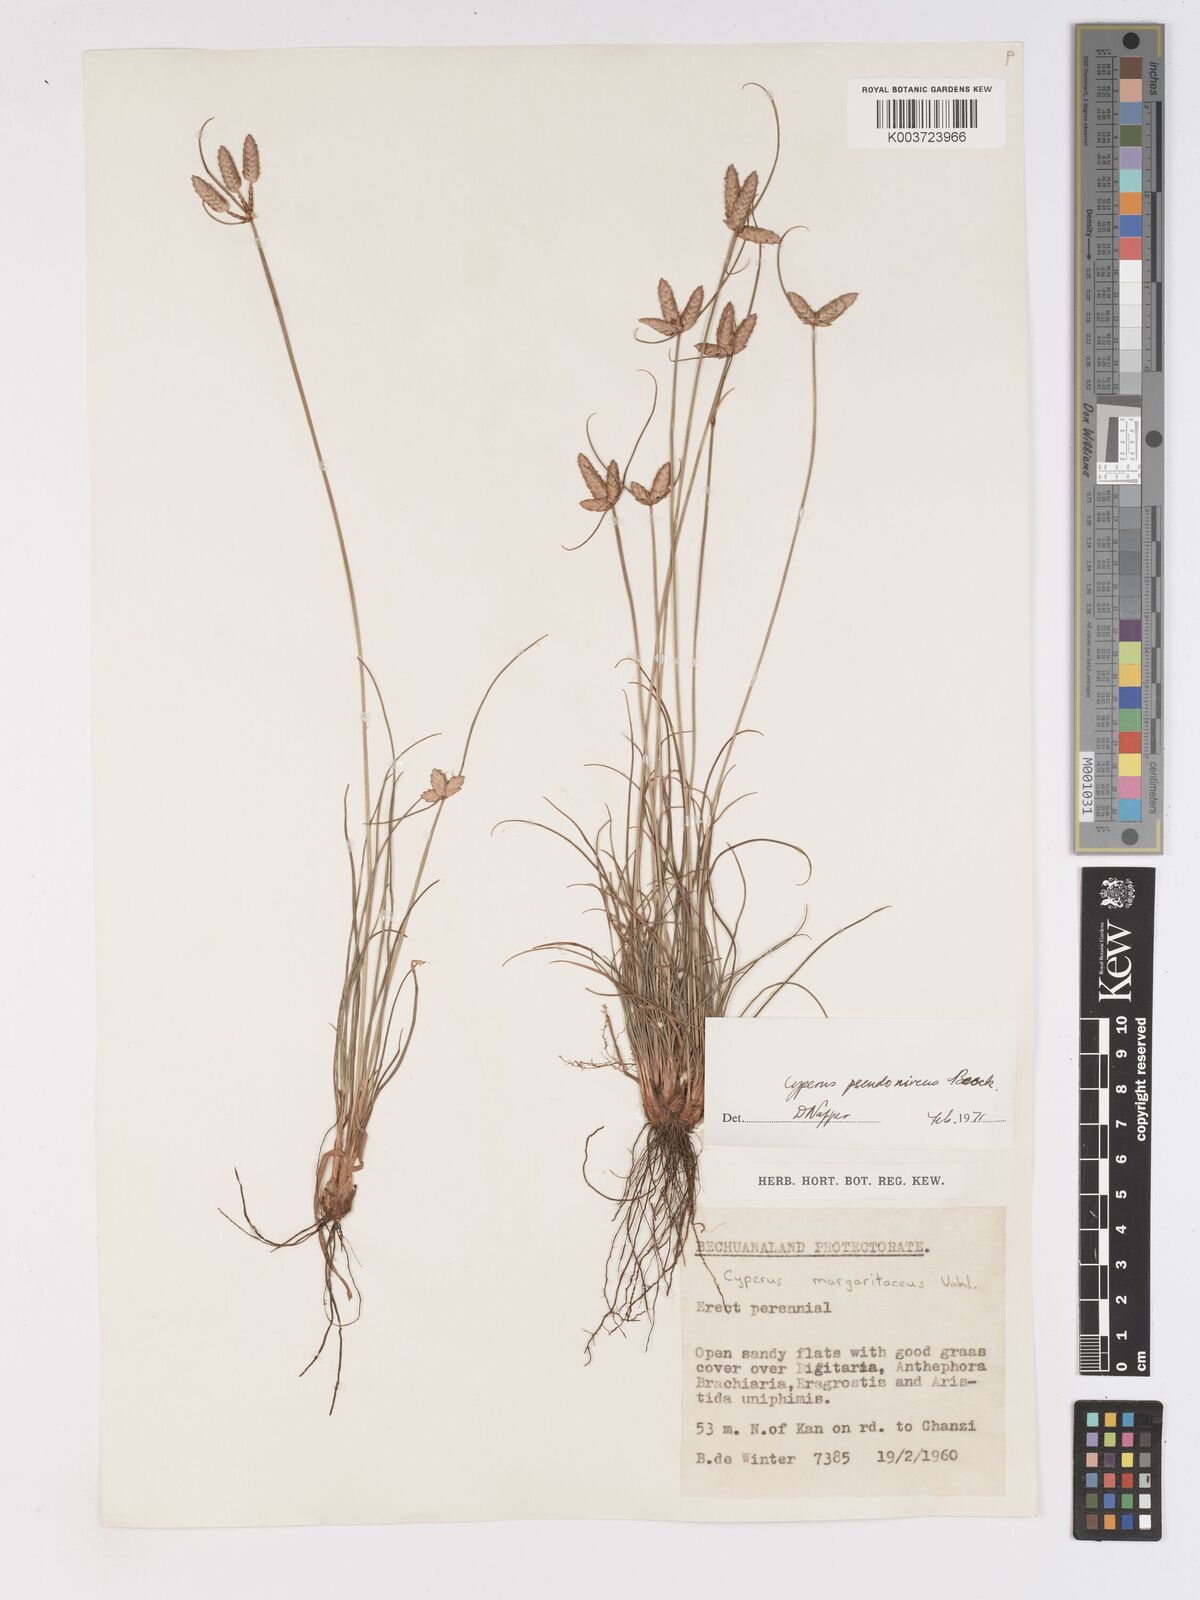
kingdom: Plantae
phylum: Tracheophyta
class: Liliopsida
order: Poales
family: Cyperaceae
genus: Cyperus
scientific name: Cyperus margaritaceus
